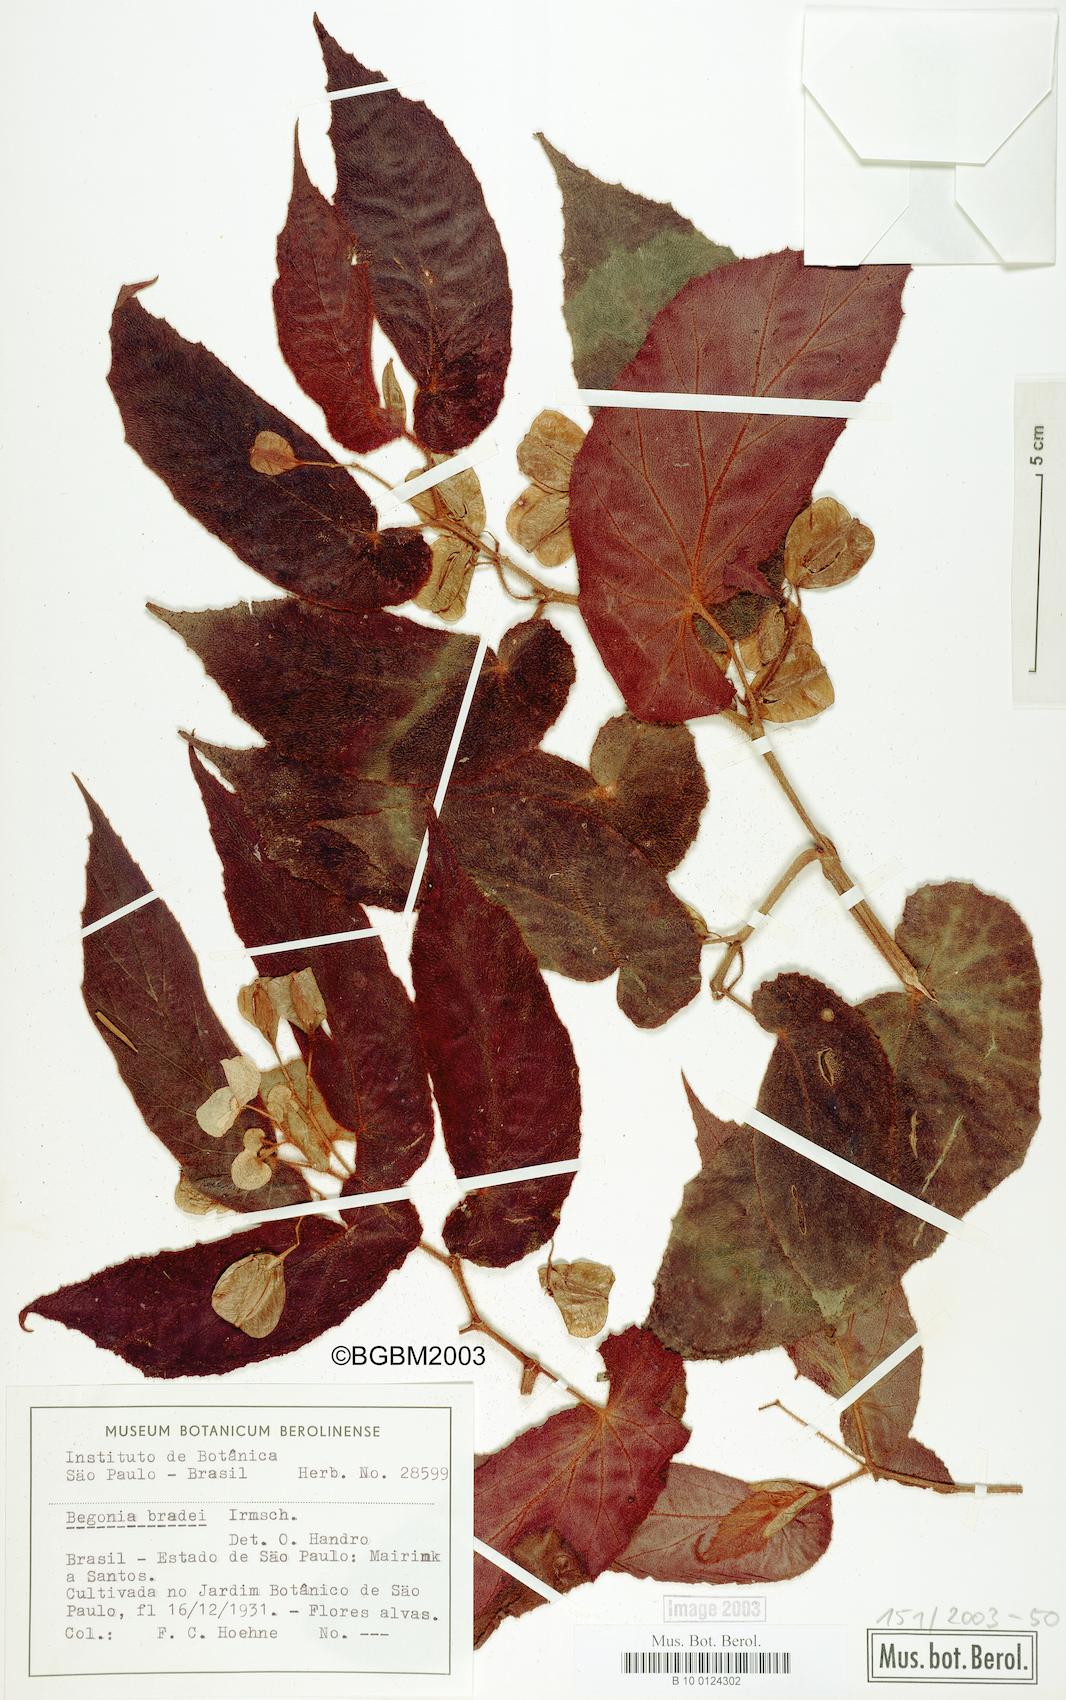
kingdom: Plantae
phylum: Tracheophyta
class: Magnoliopsida
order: Cucurbitales
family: Begoniaceae
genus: Begonia
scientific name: Begonia bradei
